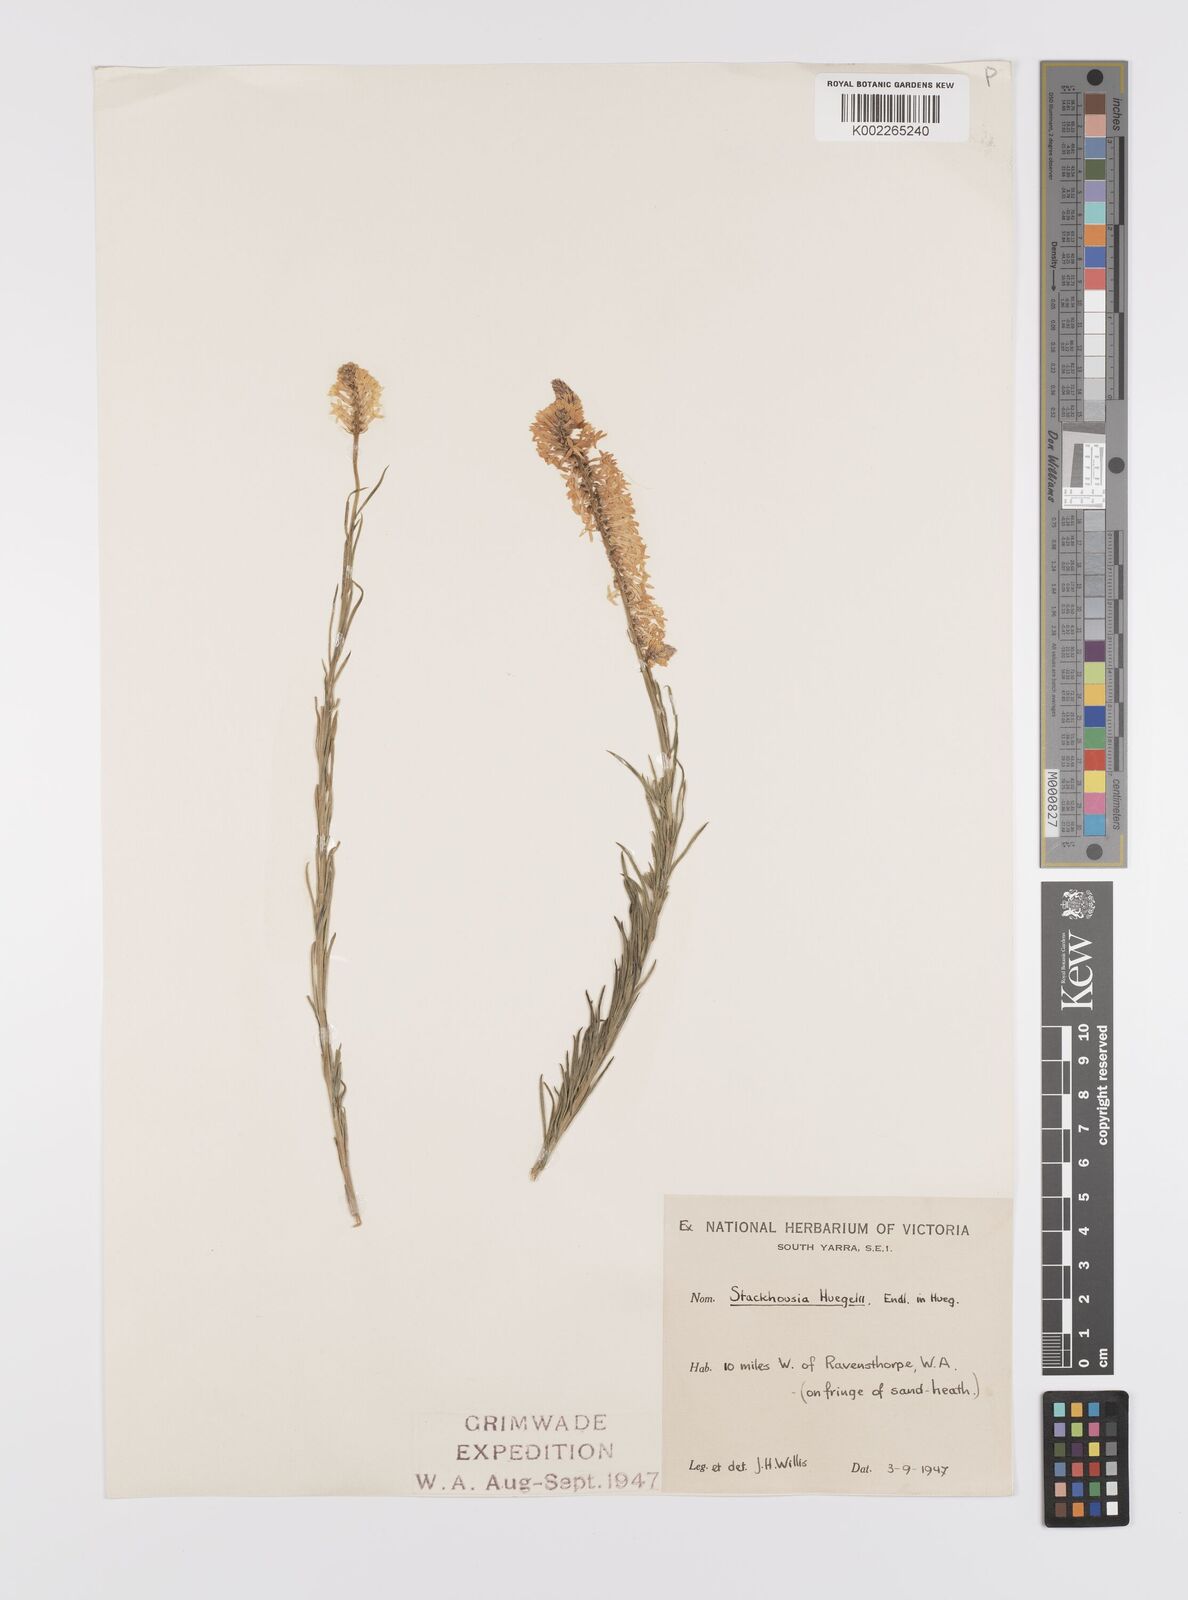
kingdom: Plantae
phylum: Tracheophyta
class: Magnoliopsida
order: Celastrales
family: Celastraceae
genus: Stackhousia
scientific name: Stackhousia monogyna
